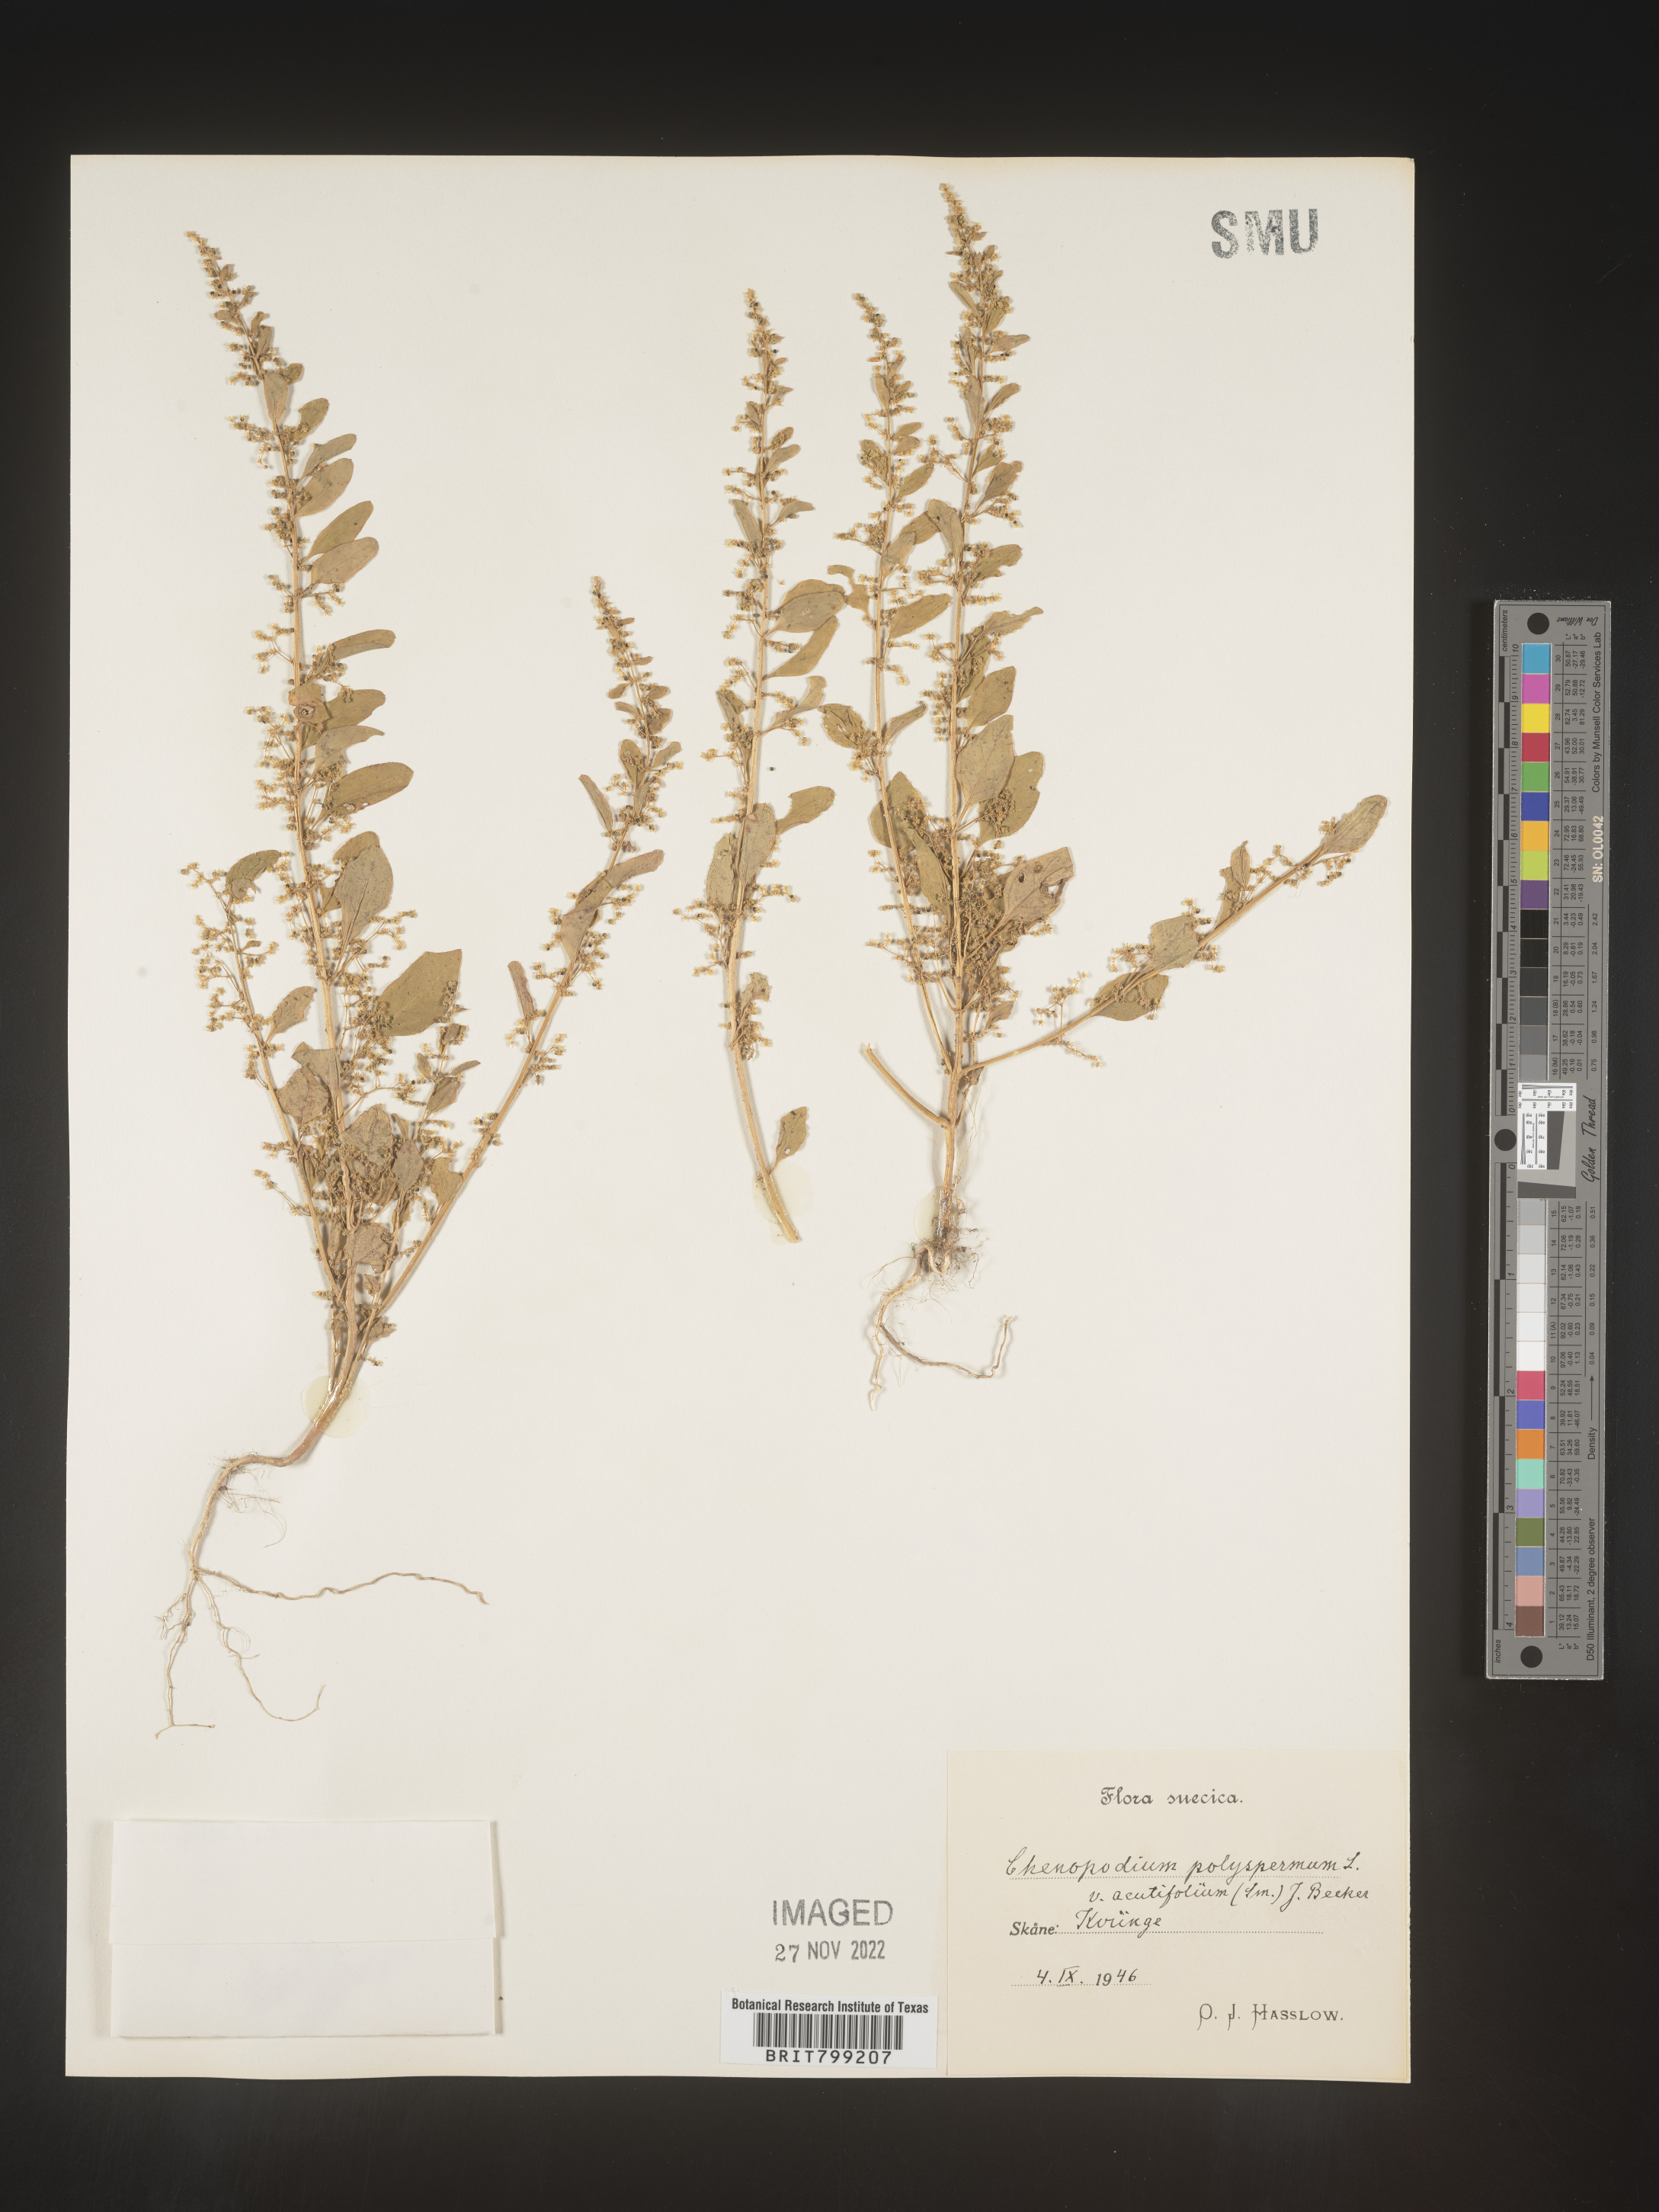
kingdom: Plantae
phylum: Tracheophyta
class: Magnoliopsida
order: Caryophyllales
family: Amaranthaceae
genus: Chenopodium
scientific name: Chenopodium
